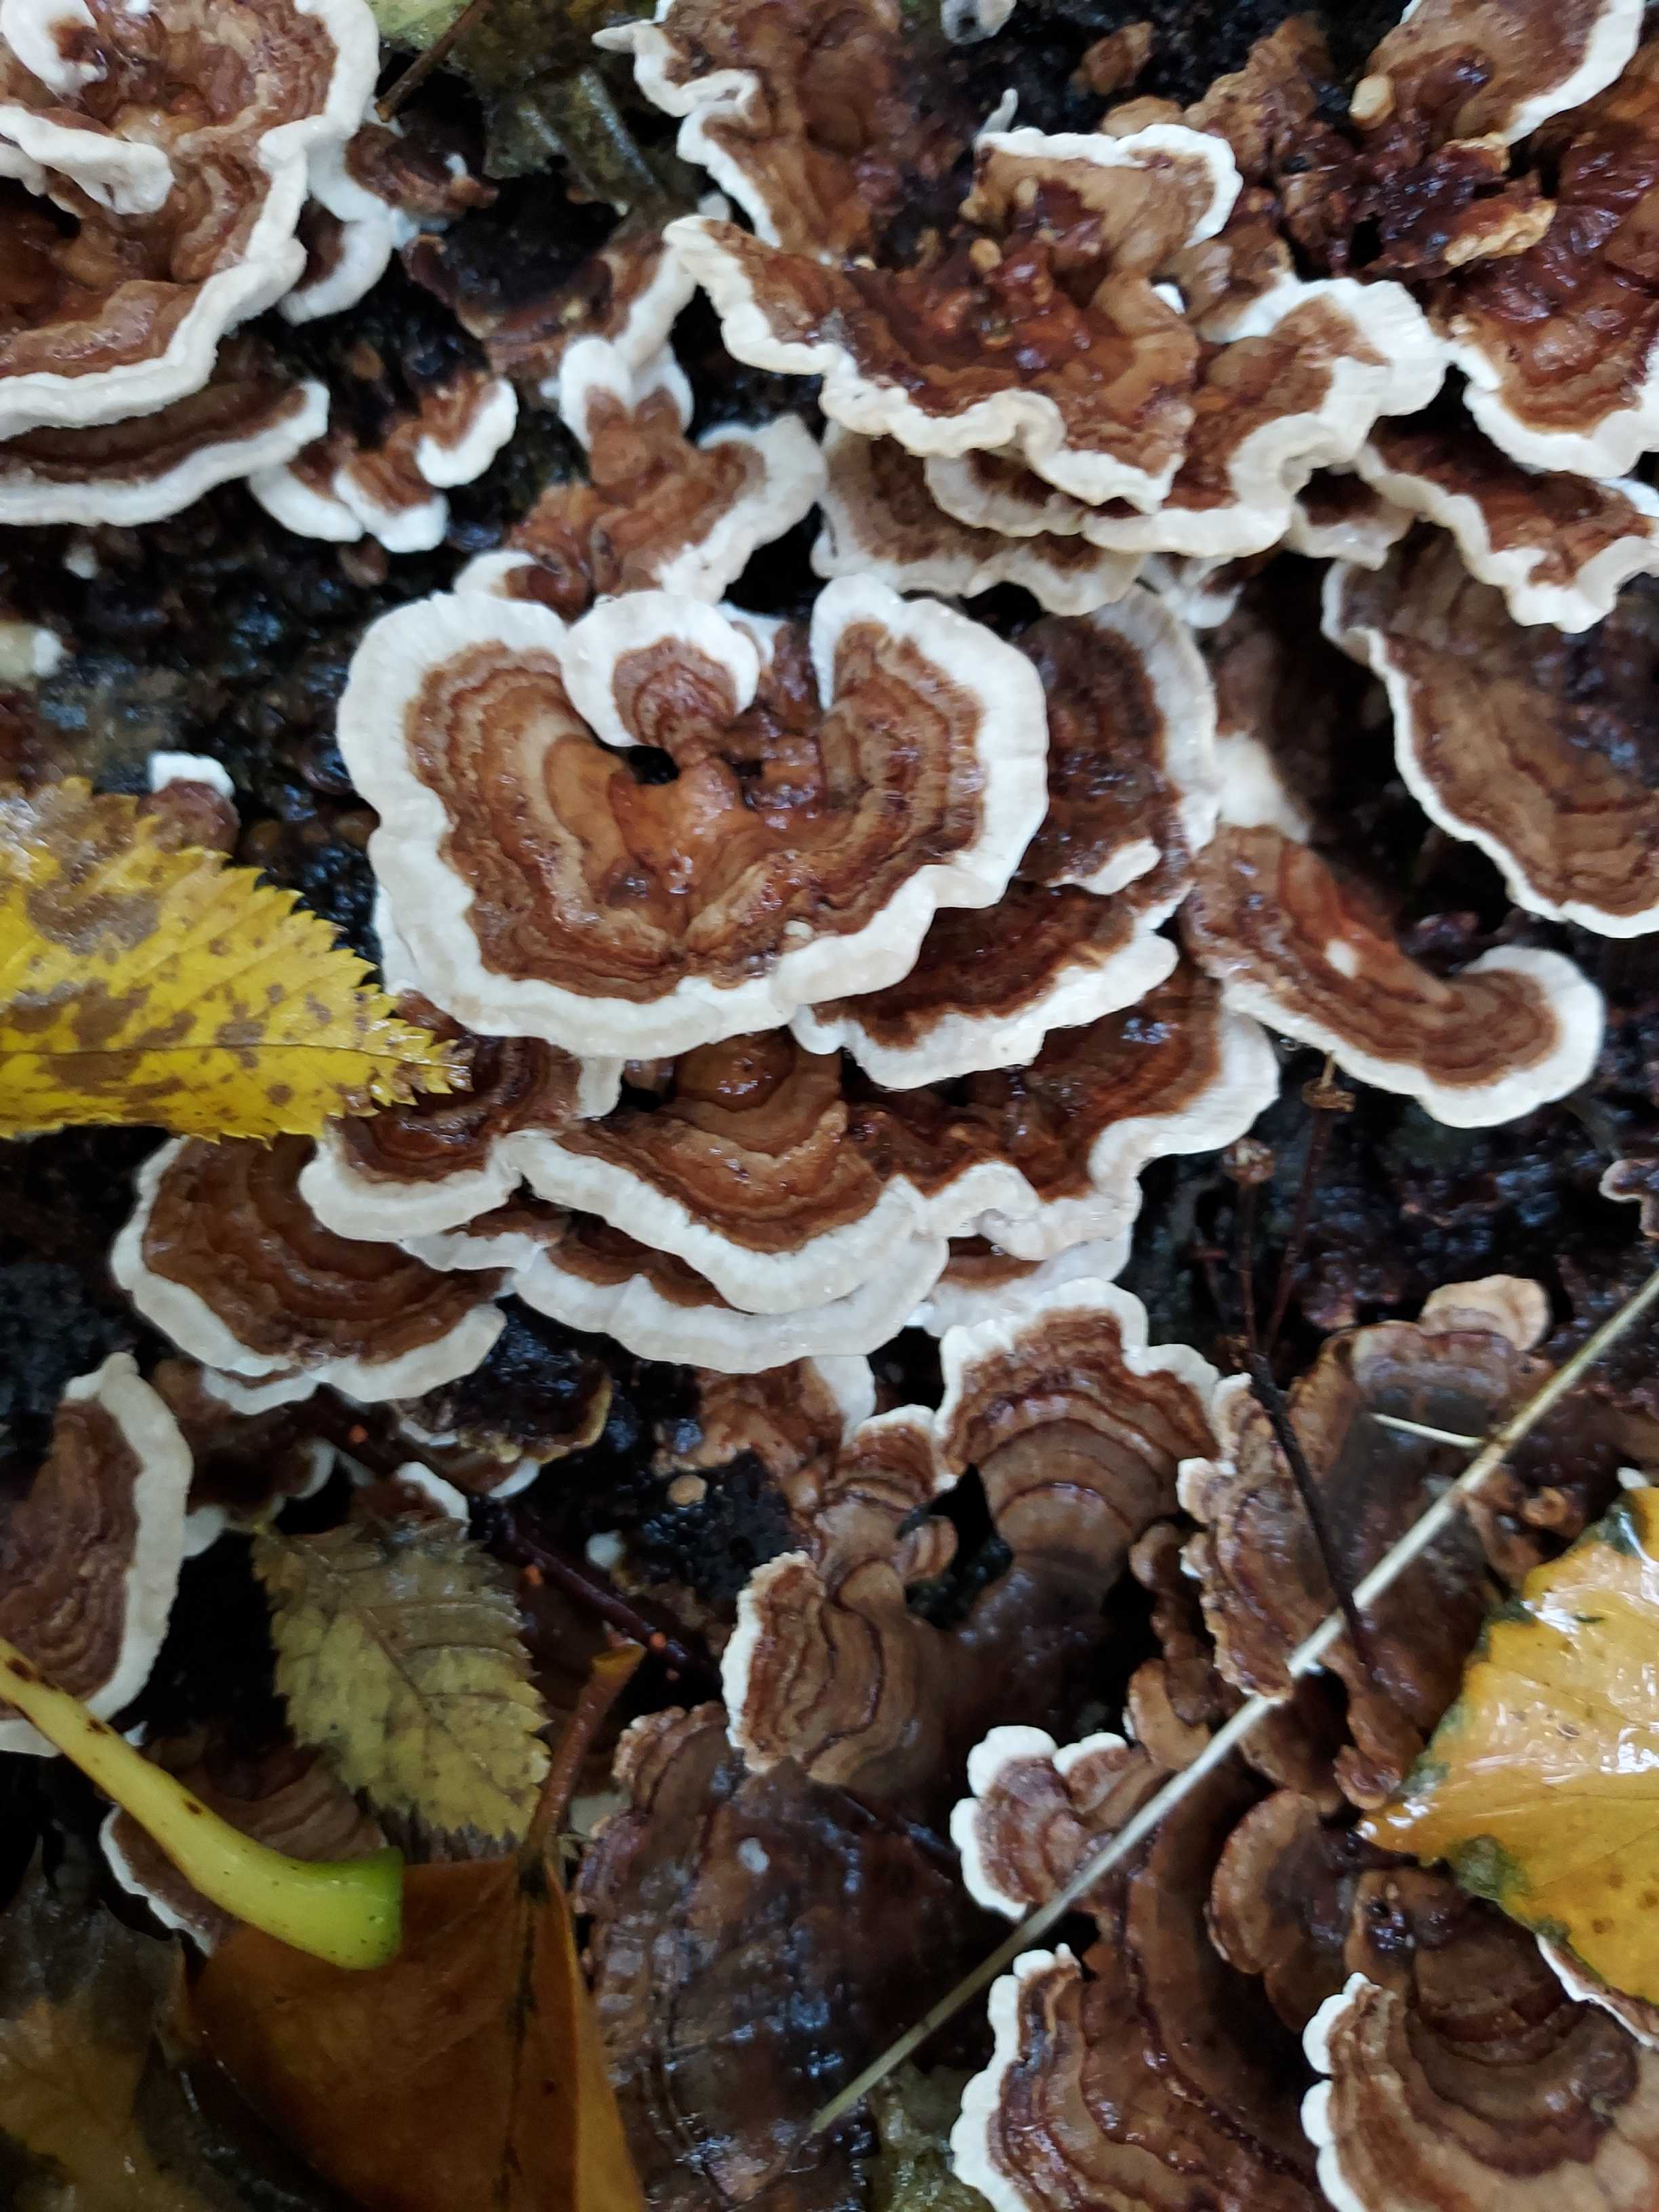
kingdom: Fungi
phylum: Basidiomycota
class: Agaricomycetes
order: Polyporales
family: Polyporaceae
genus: Trametes
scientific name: Trametes versicolor
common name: broget læderporesvamp
